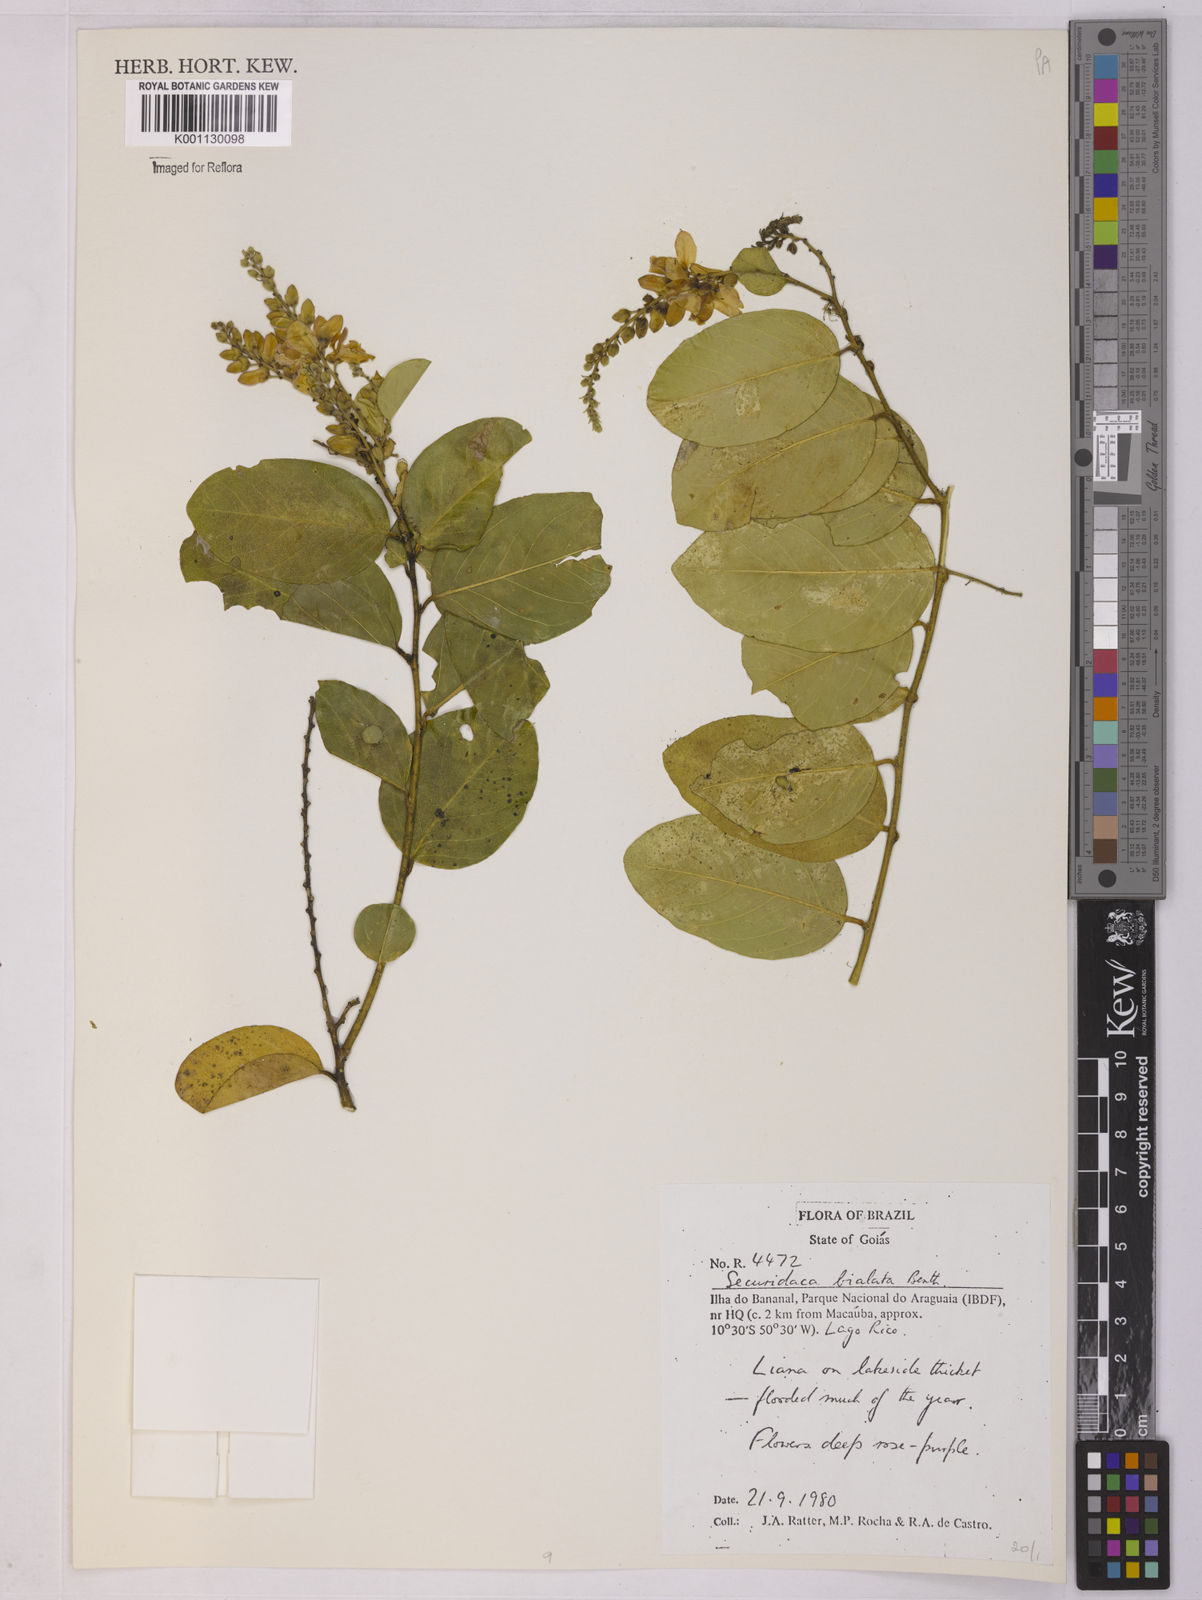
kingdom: Plantae
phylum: Tracheophyta
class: Magnoliopsida
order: Fabales
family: Polygalaceae
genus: Securidaca
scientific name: Securidaca bialata
